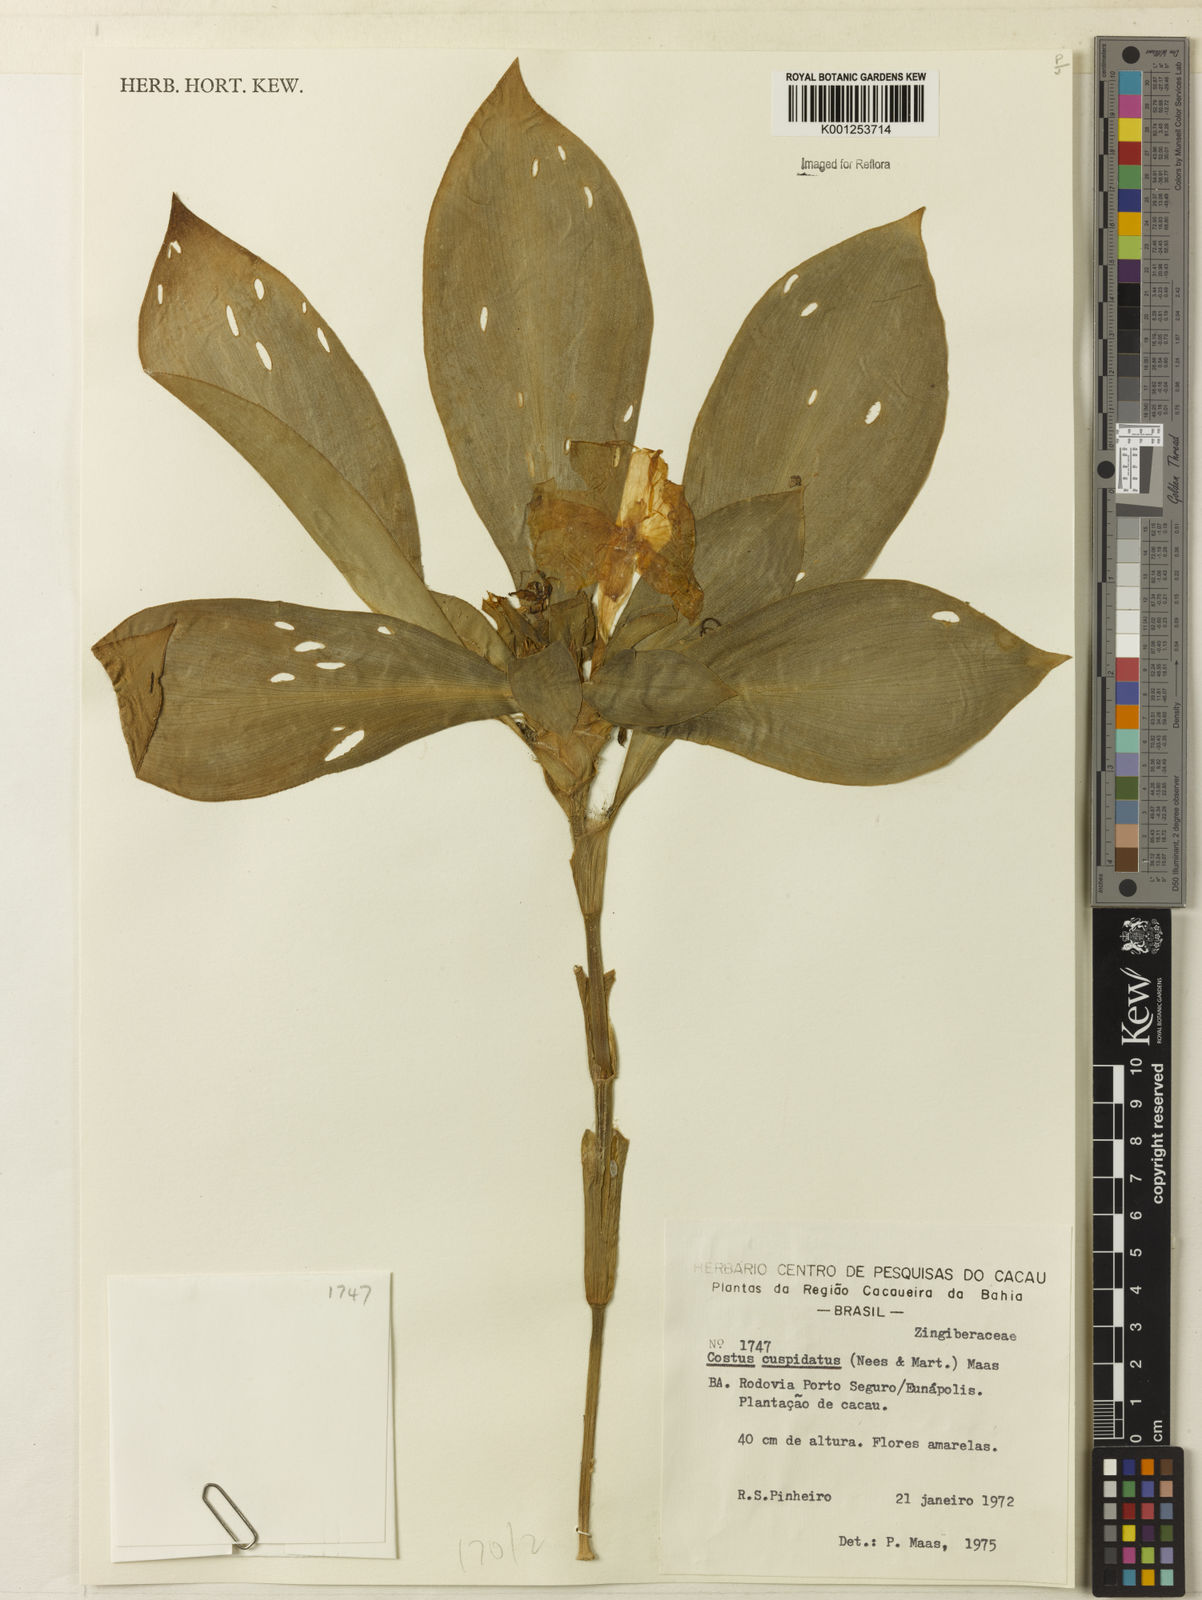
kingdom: Plantae
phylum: Tracheophyta
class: Liliopsida
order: Zingiberales
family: Costaceae
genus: Chamaecostus
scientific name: Chamaecostus cuspidatus
